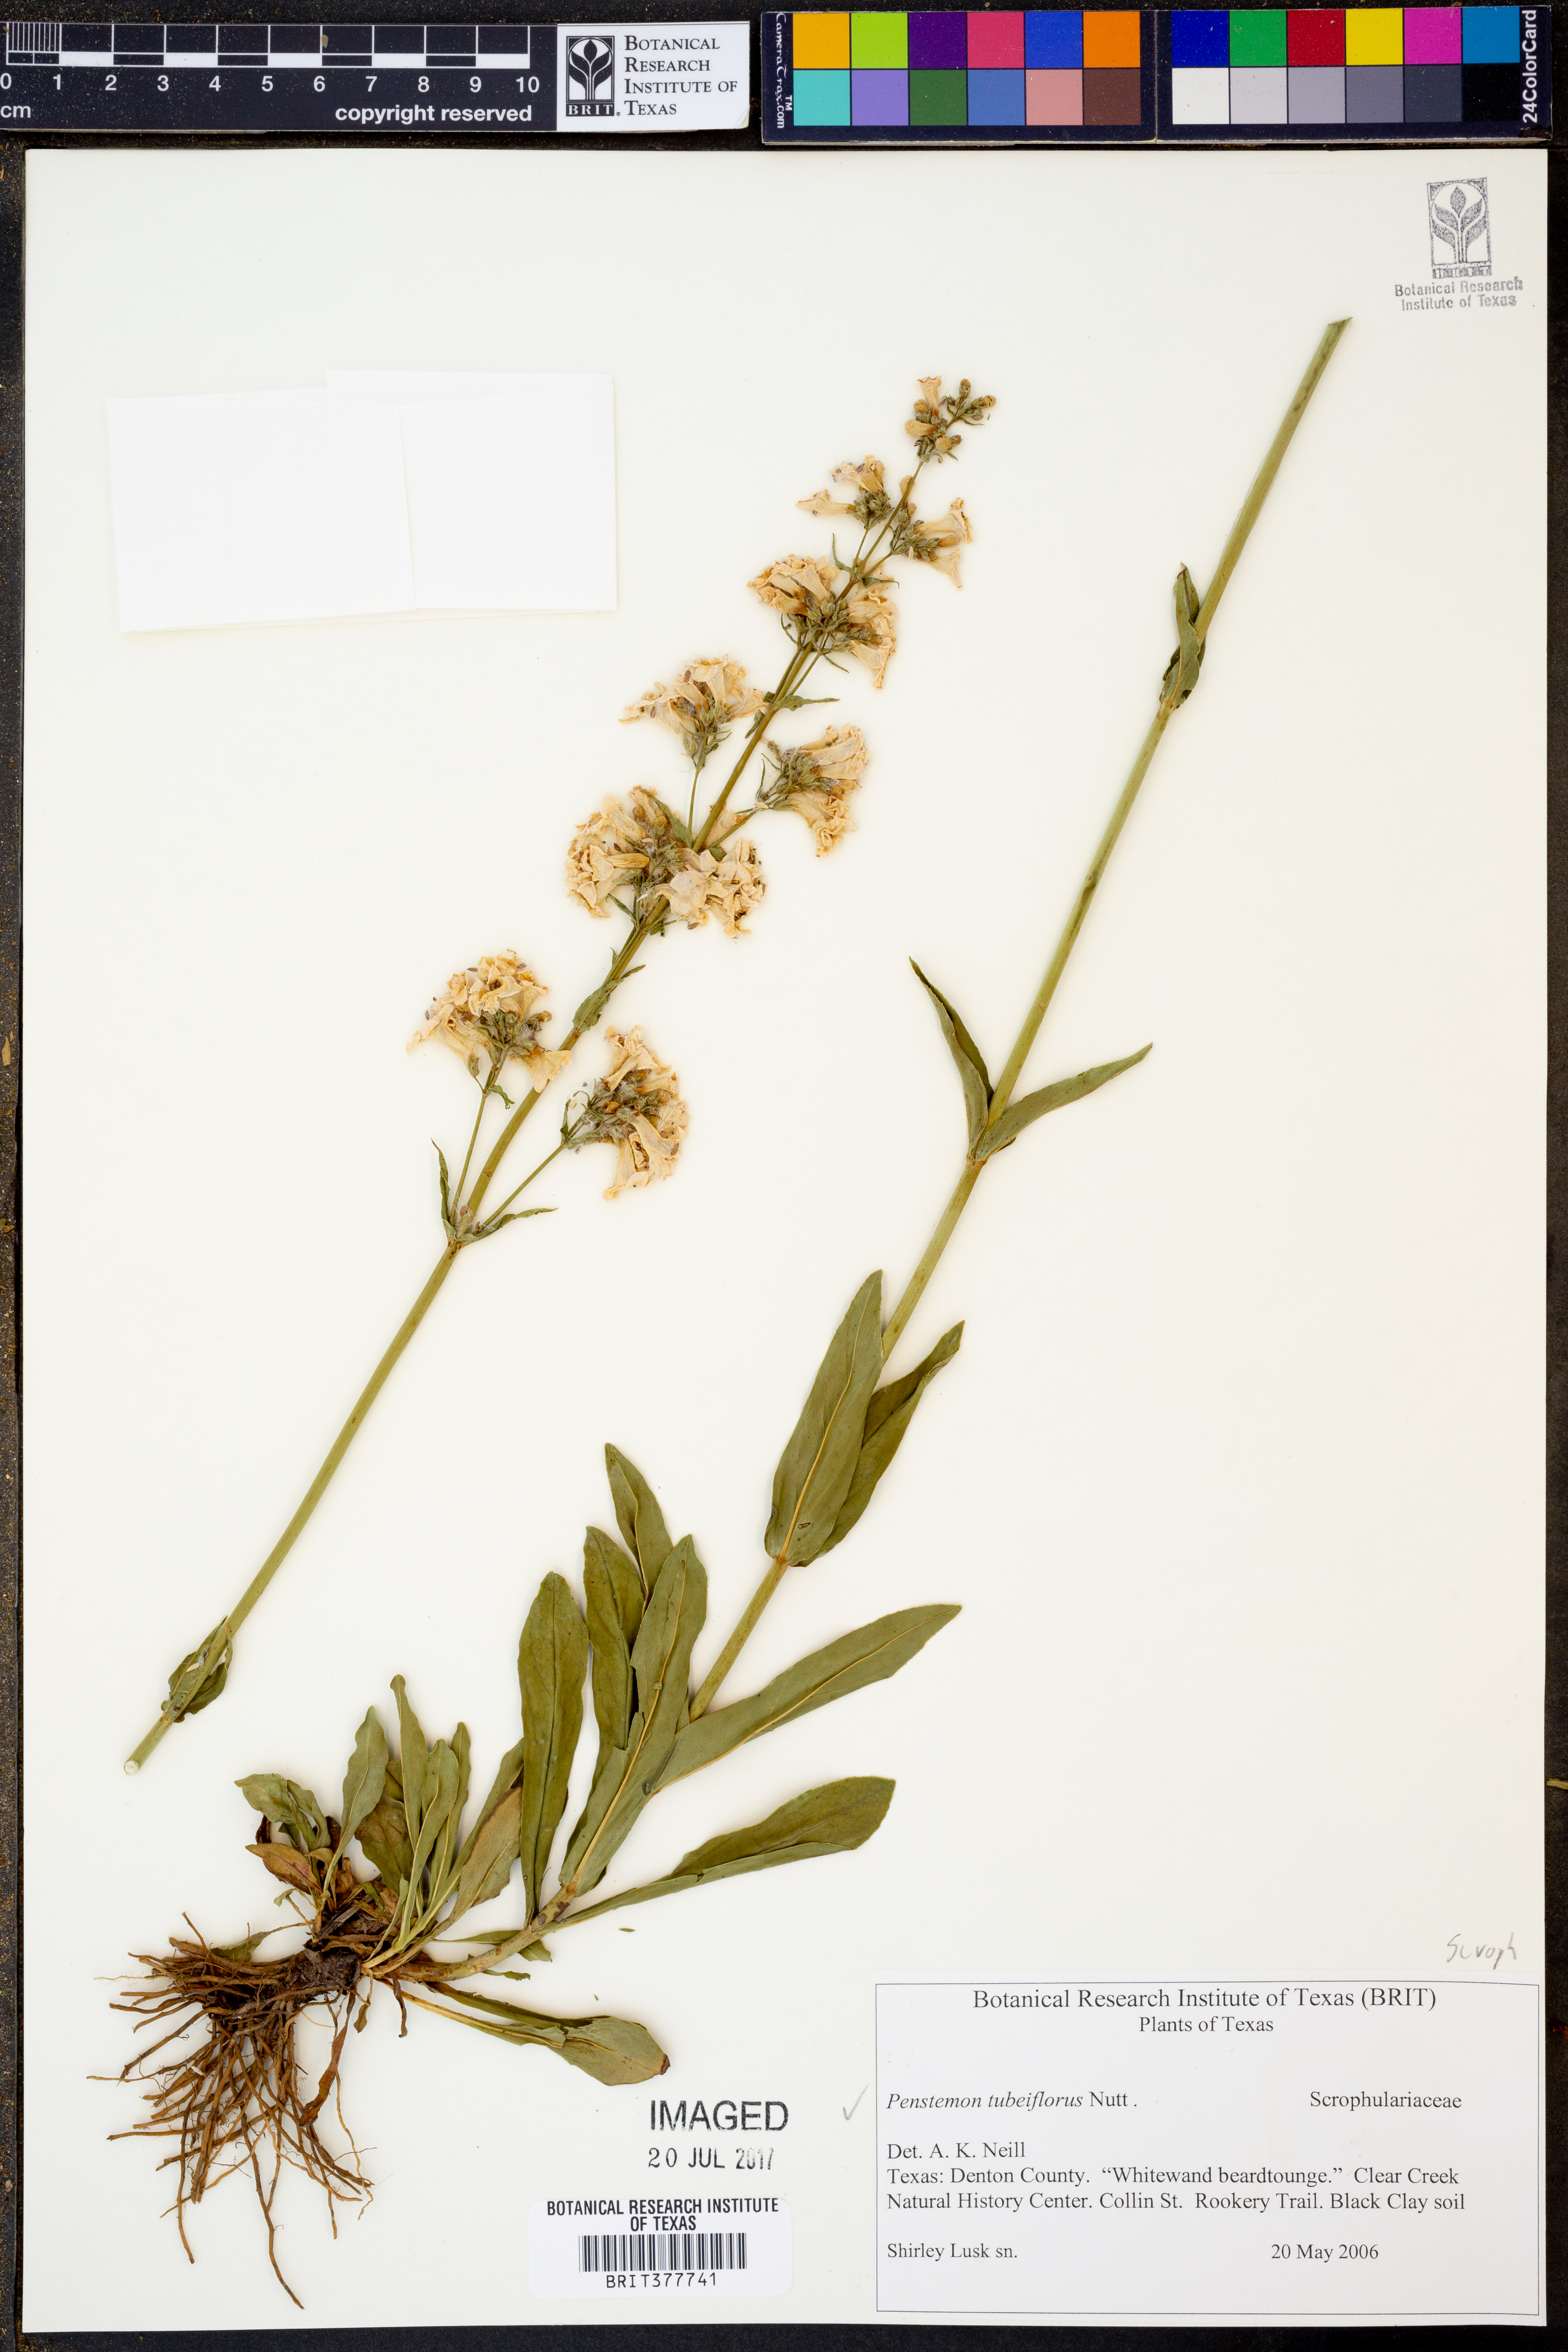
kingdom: Plantae
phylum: Tracheophyta
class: Magnoliopsida
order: Lamiales
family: Plantaginaceae
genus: Penstemon
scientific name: Penstemon tubaeflorus
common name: White wand beardtongue
